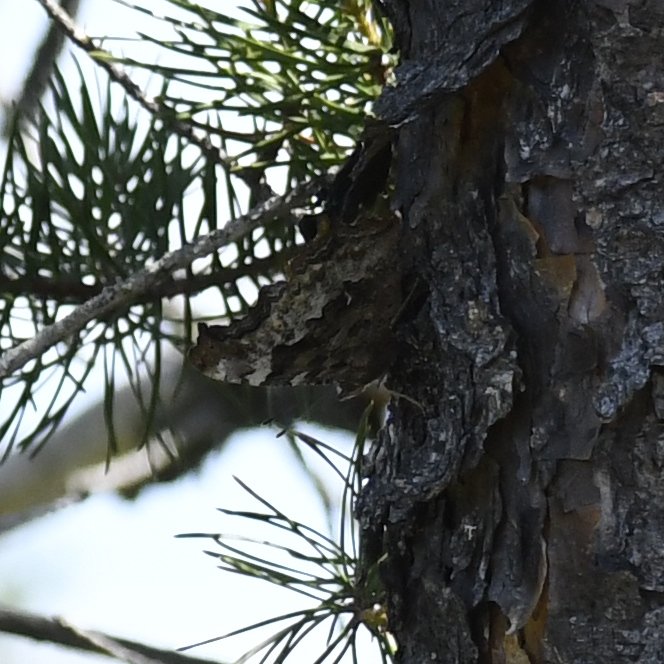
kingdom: Animalia
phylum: Arthropoda
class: Insecta
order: Lepidoptera
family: Nymphalidae
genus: Polygonia
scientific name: Polygonia vaualbum
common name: Compton Tortoiseshell
